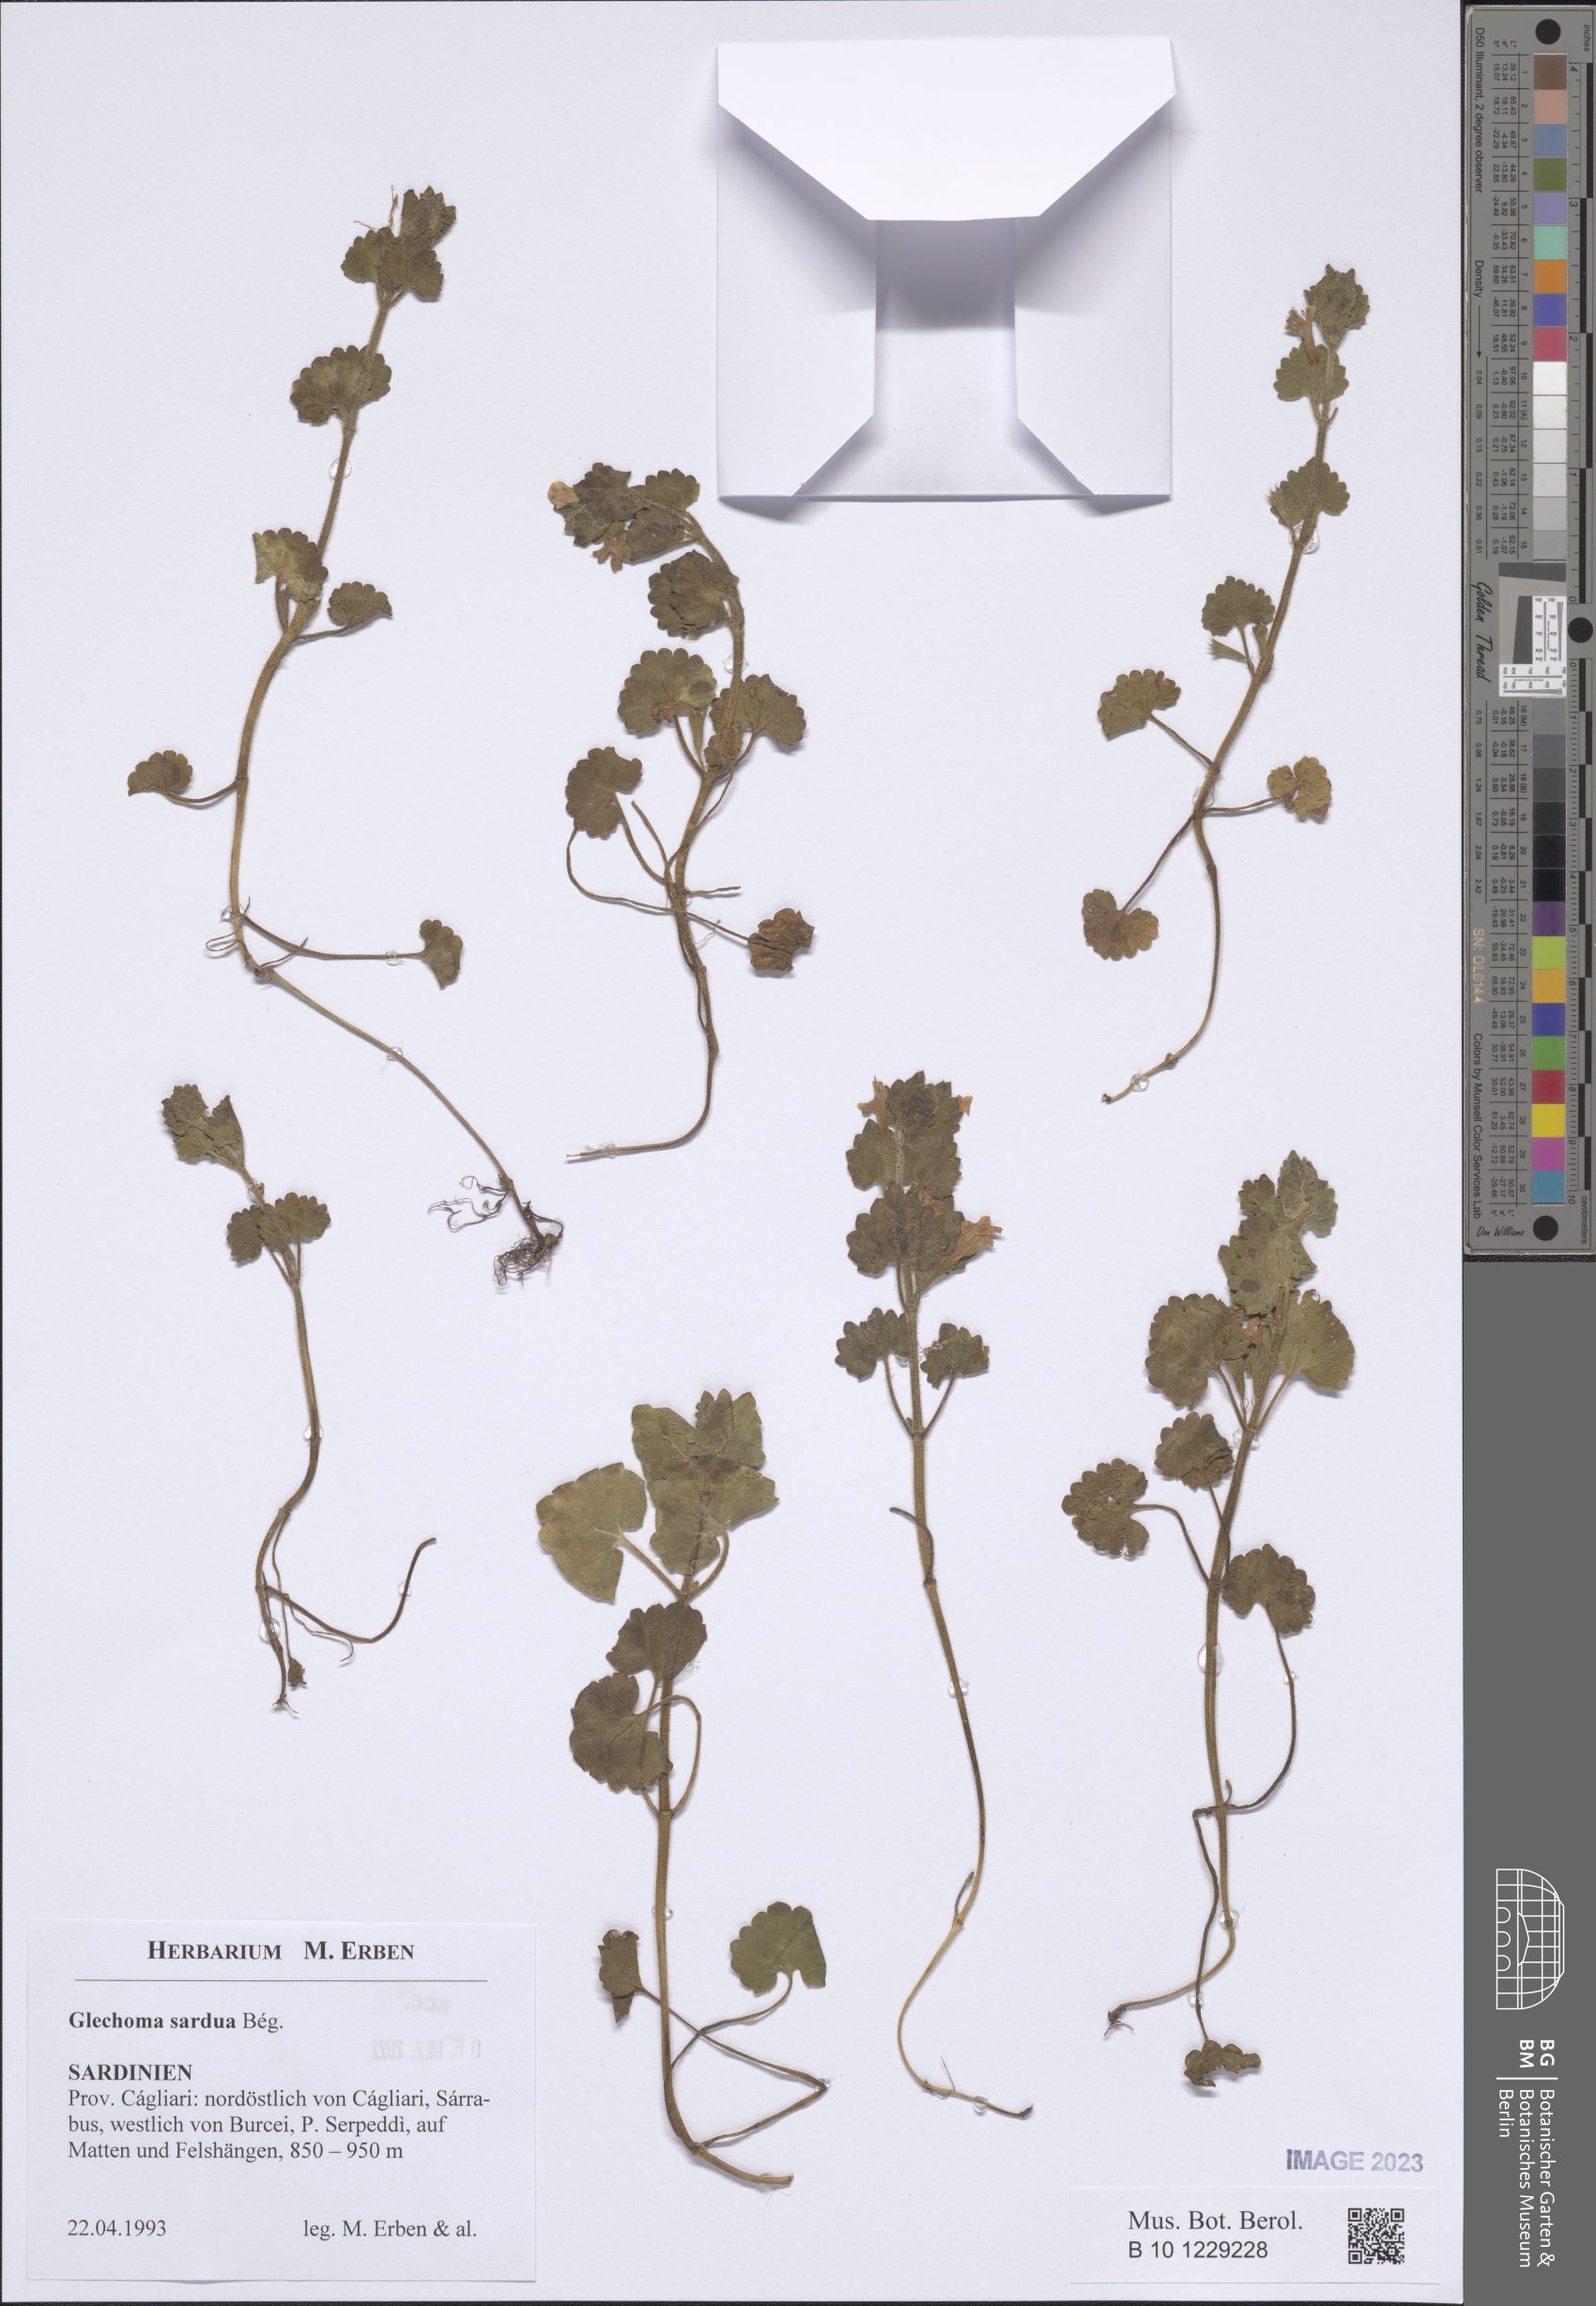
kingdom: Plantae
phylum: Tracheophyta
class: Magnoliopsida
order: Lamiales
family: Lamiaceae
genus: Glechoma
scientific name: Glechoma sardoa
